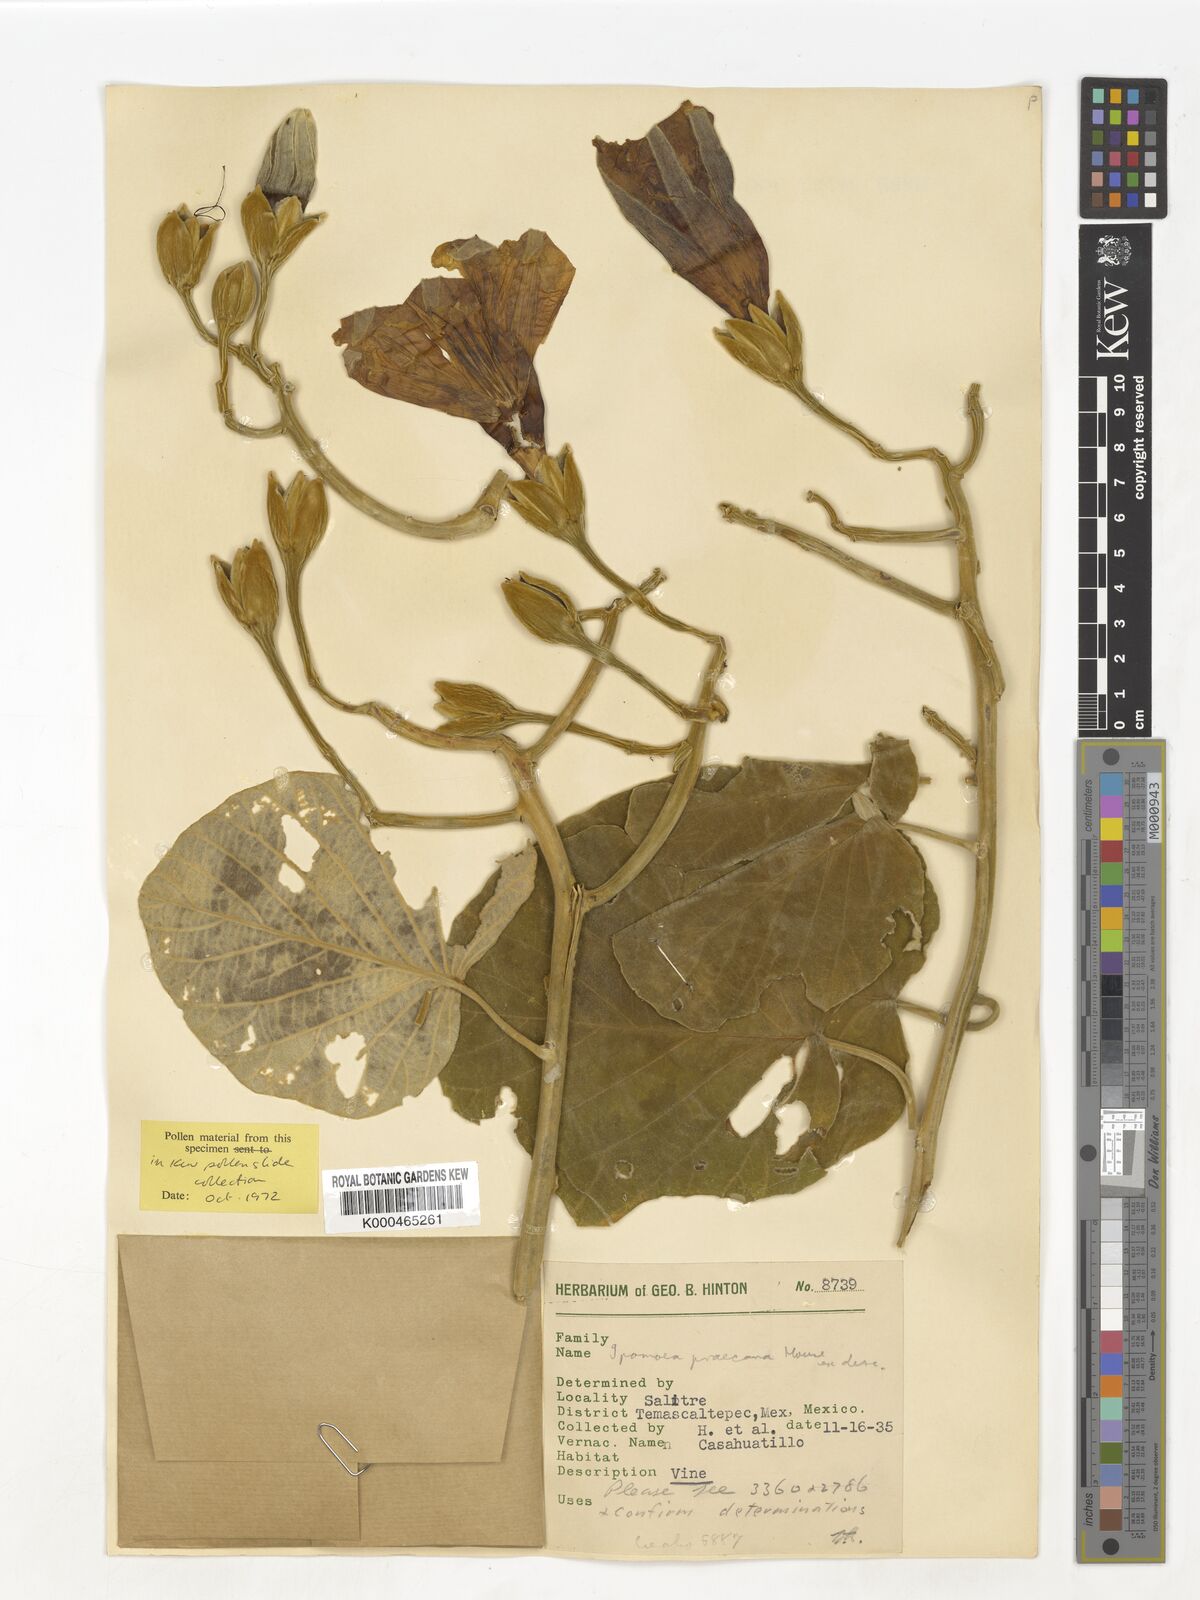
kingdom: Plantae
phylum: Tracheophyta
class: Magnoliopsida
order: Solanales
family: Convolvulaceae
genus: Ipomoea
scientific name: Ipomoea praecana
